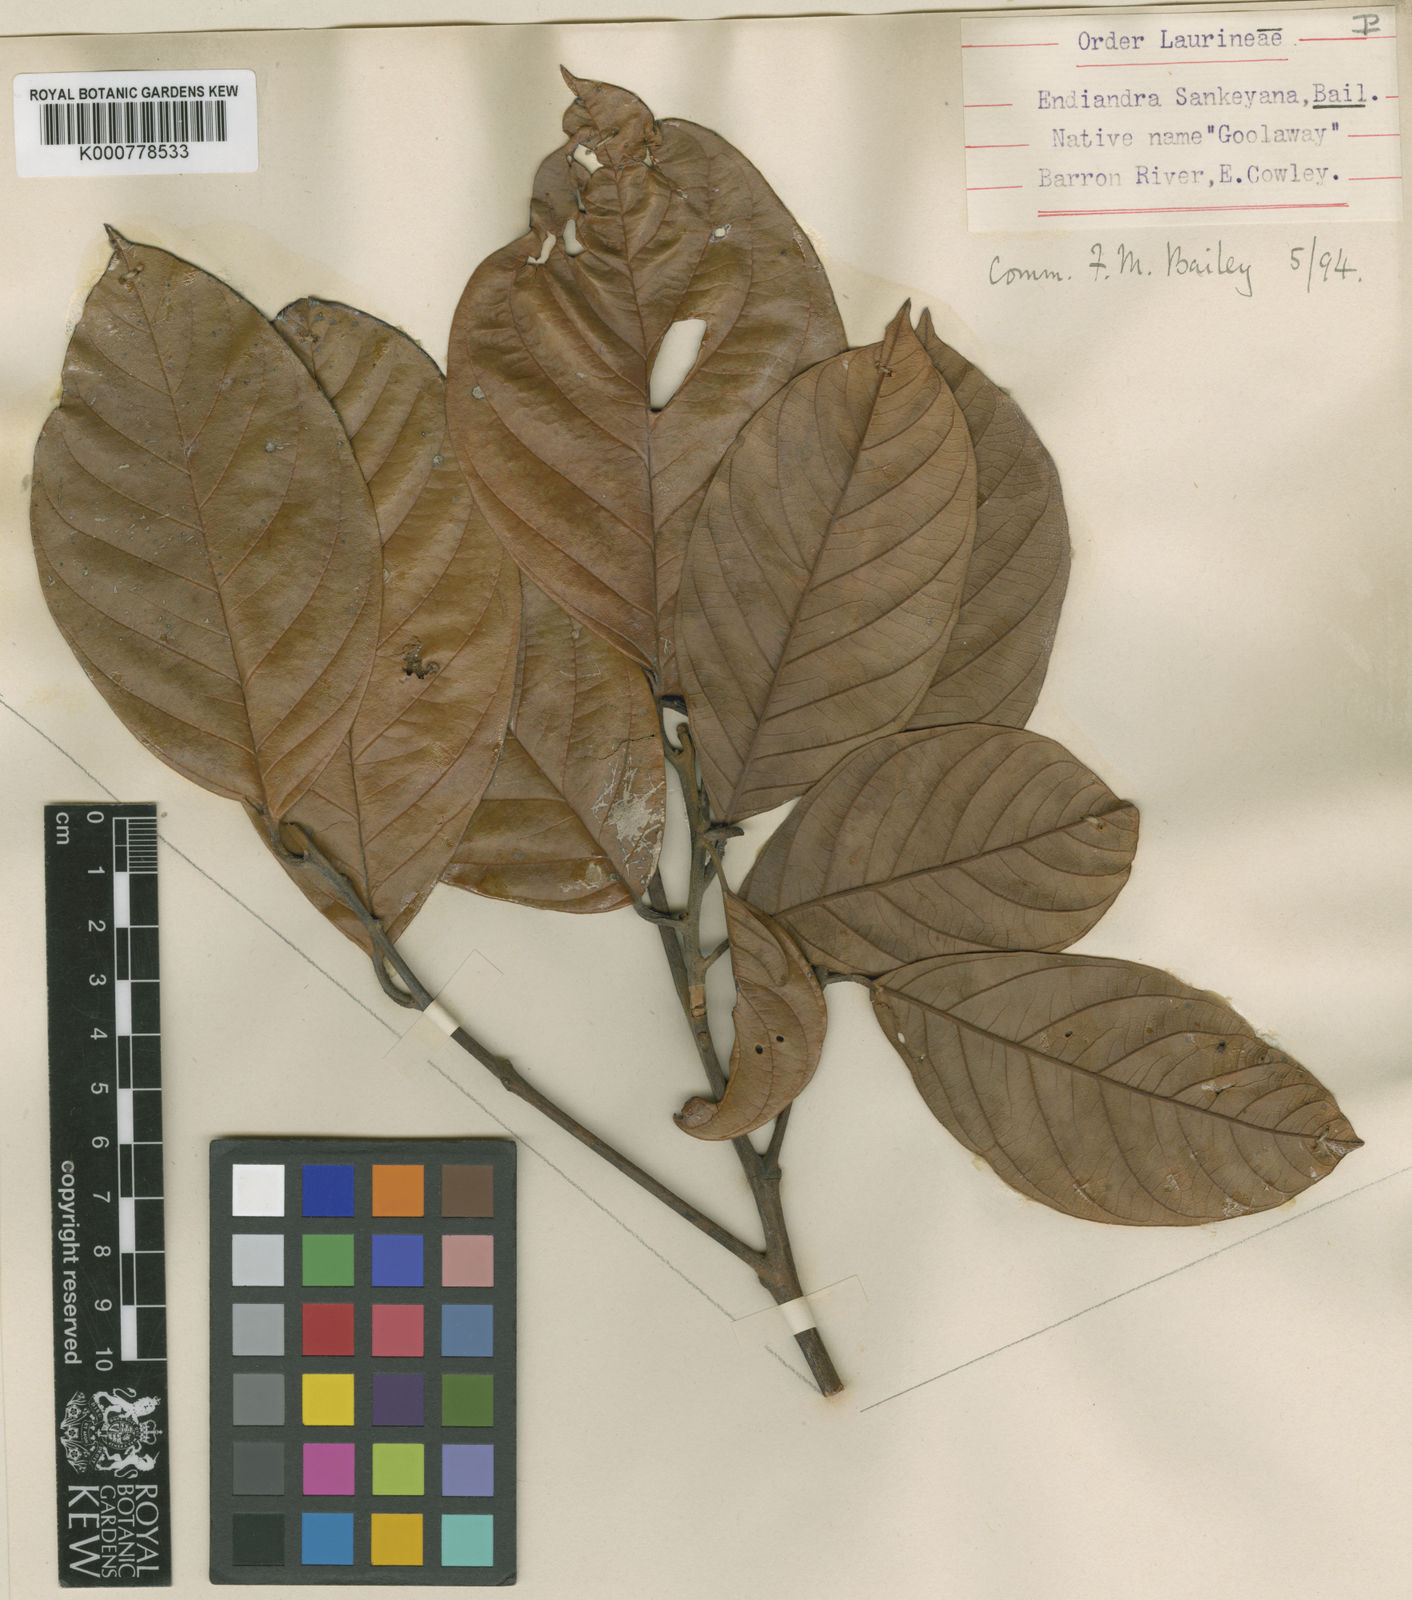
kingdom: Plantae
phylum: Tracheophyta
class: Magnoliopsida
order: Laurales
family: Lauraceae
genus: Endiandra
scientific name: Endiandra sankeyana
